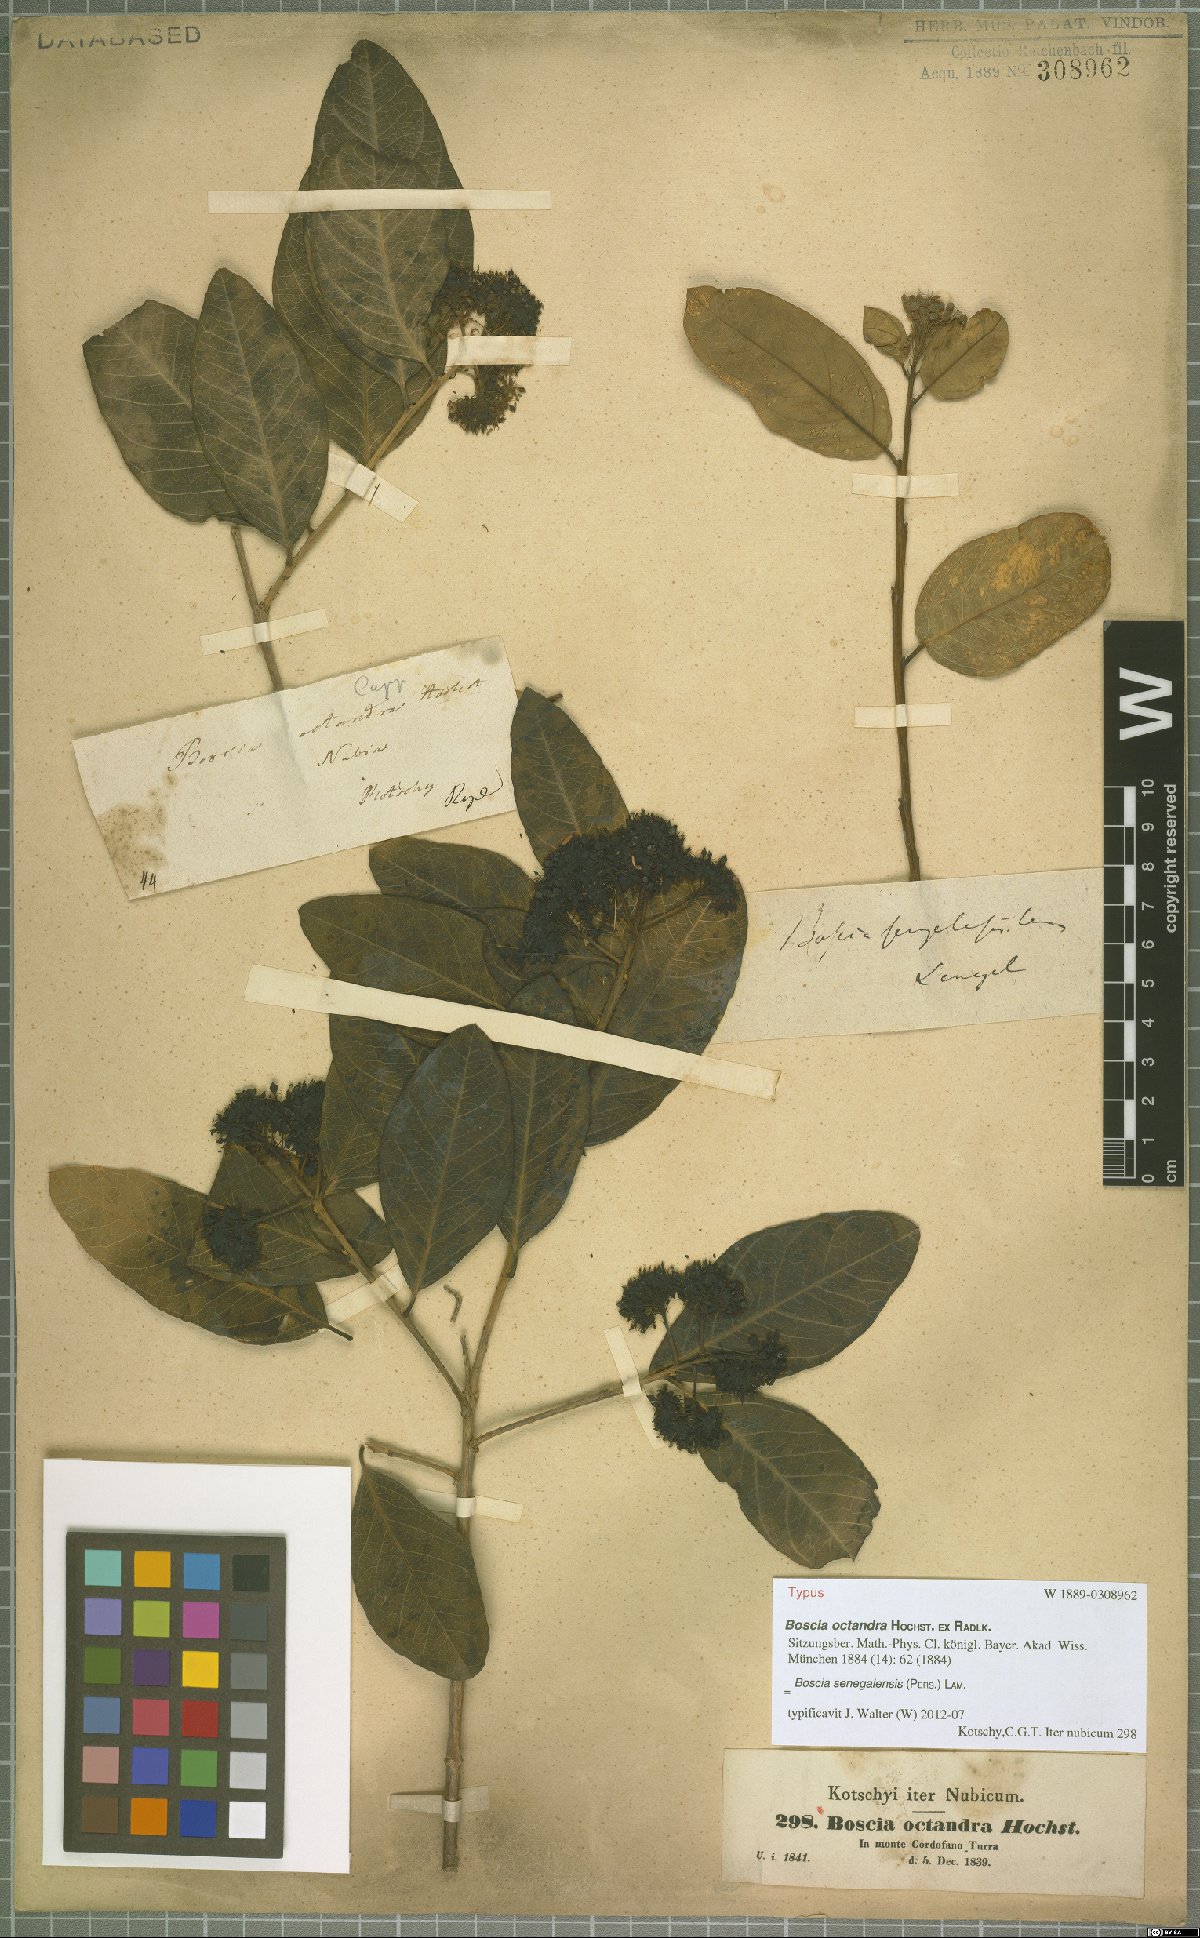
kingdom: Plantae
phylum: Tracheophyta
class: Magnoliopsida
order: Brassicales
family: Capparaceae
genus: Boscia
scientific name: Boscia senegalensis
